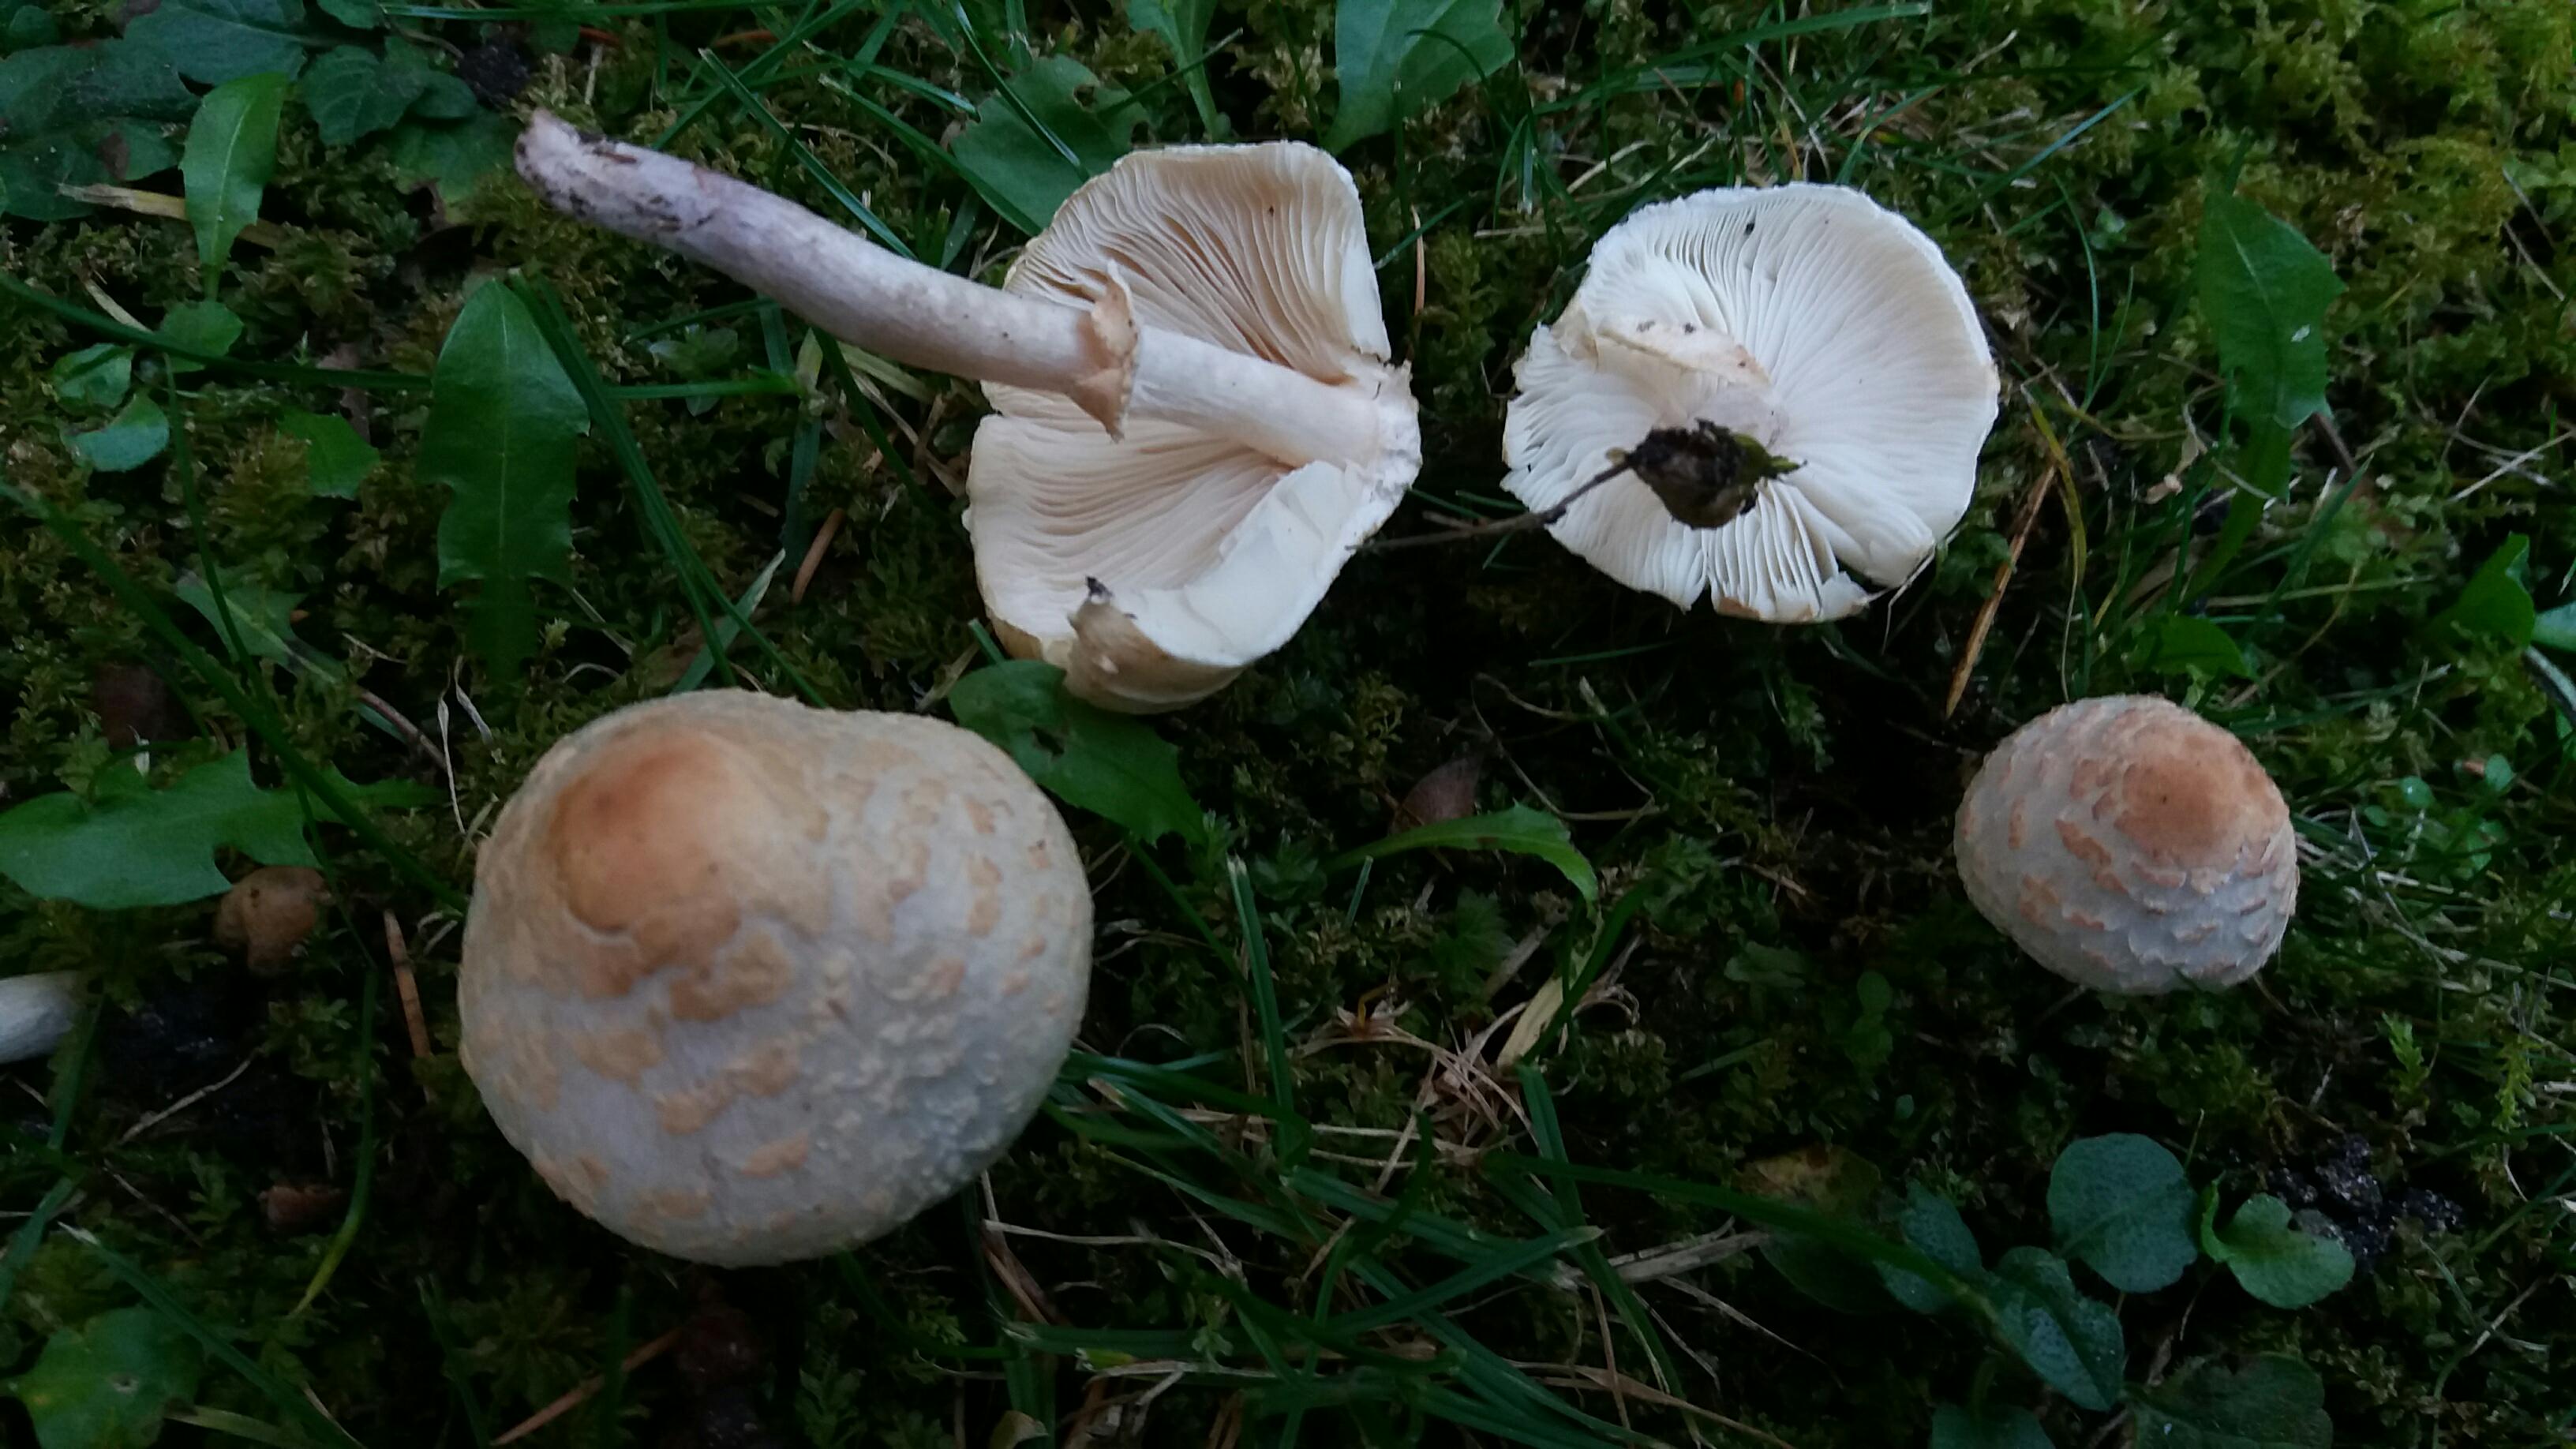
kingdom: Fungi
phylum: Basidiomycota
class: Agaricomycetes
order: Agaricales
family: Agaricaceae
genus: Lepiota
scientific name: Lepiota cristata
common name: stinkende parasolhat
